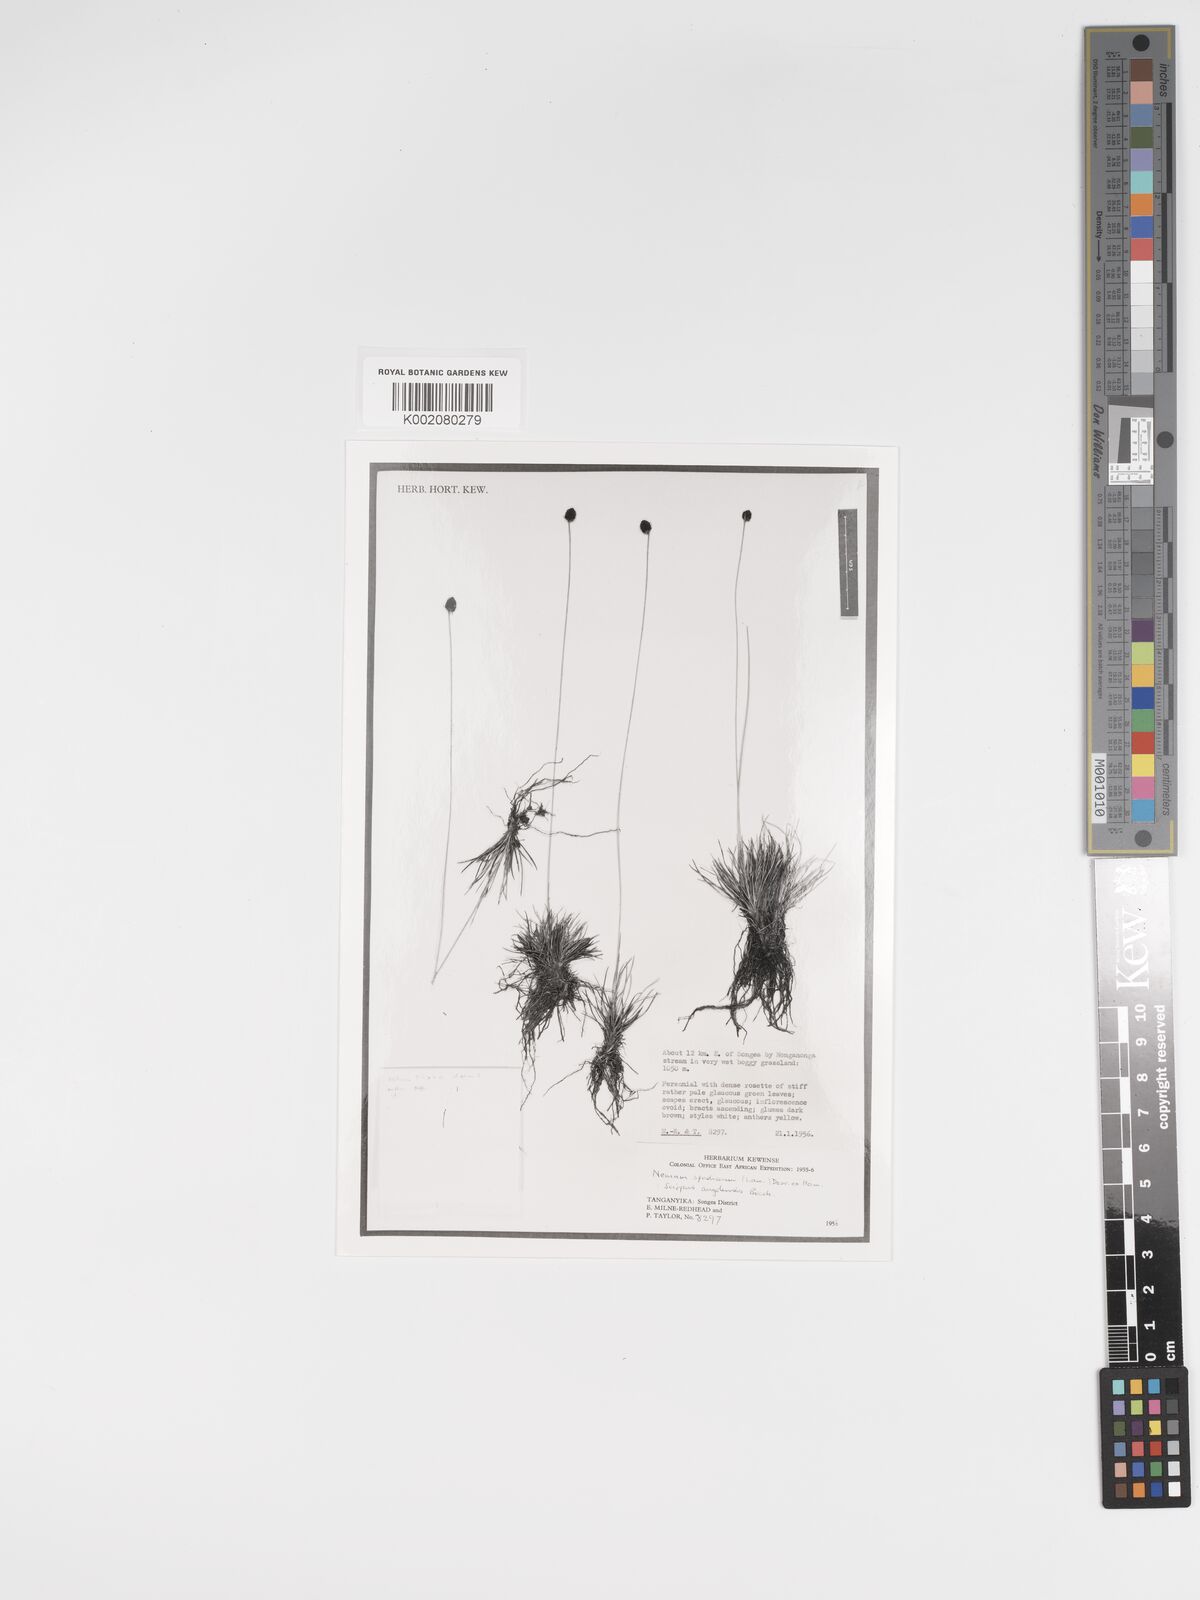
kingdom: Plantae
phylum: Tracheophyta
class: Liliopsida
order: Poales
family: Cyperaceae
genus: Bulbostylis
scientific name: Bulbostylis briziformis
